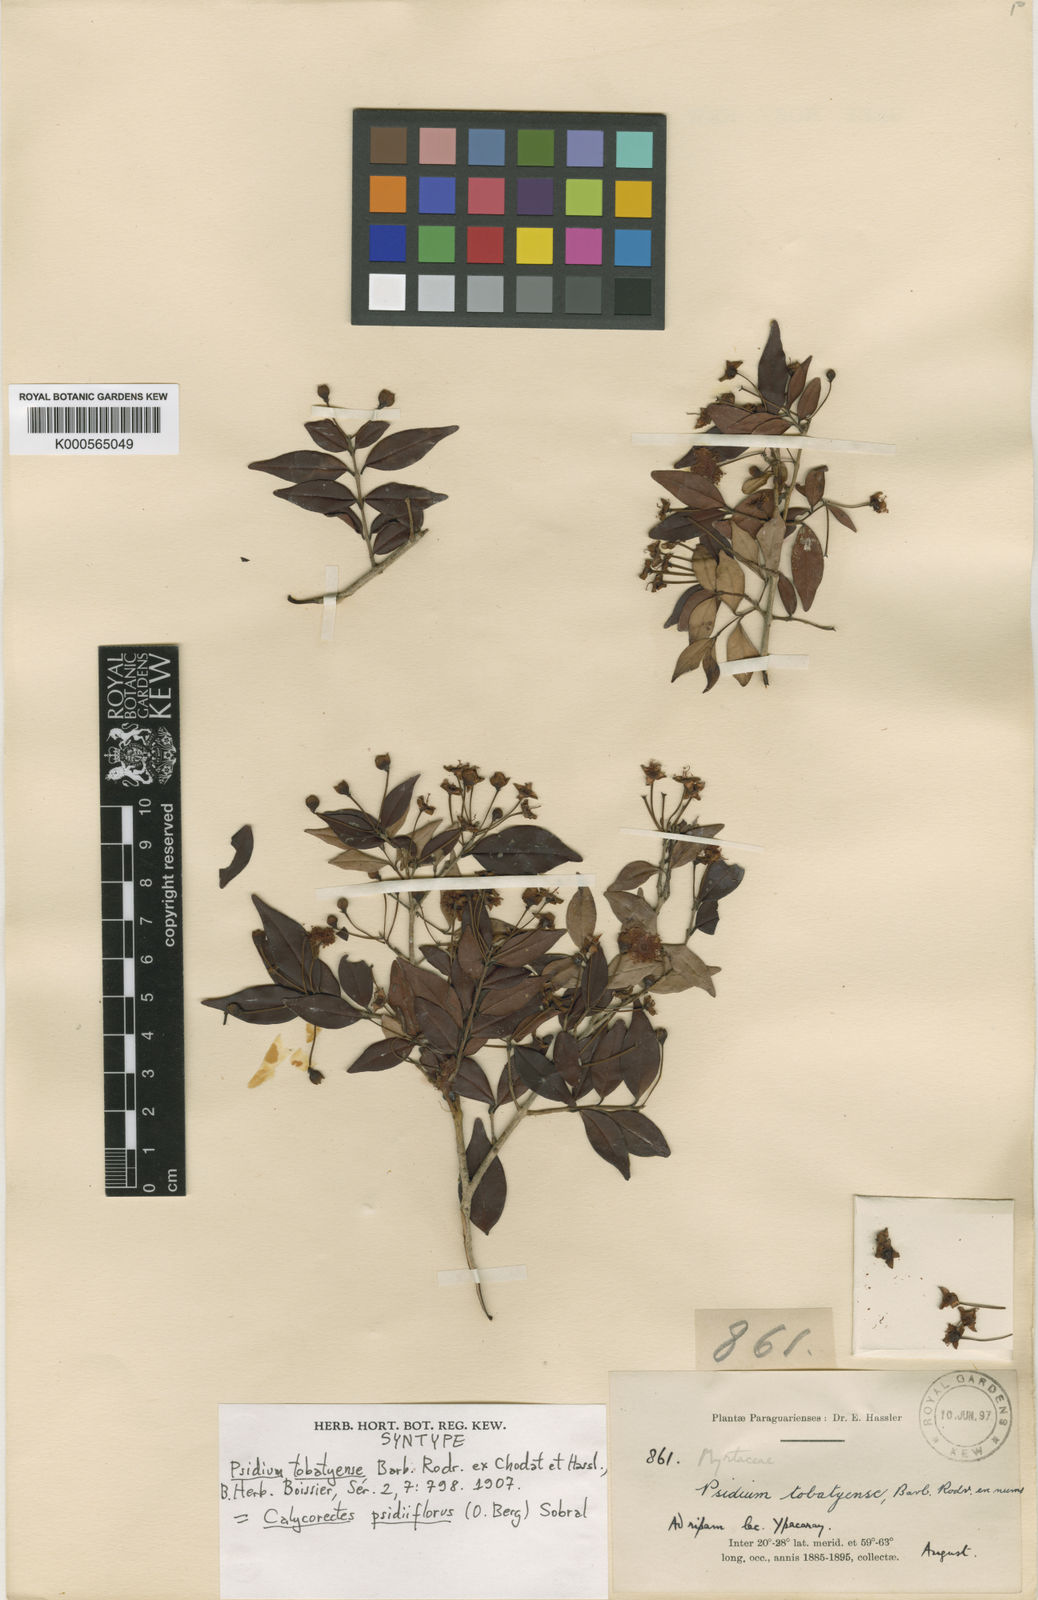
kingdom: Plantae
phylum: Tracheophyta
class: Magnoliopsida
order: Myrtales
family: Myrtaceae
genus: Eugenia
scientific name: Eugenia subterminalis
